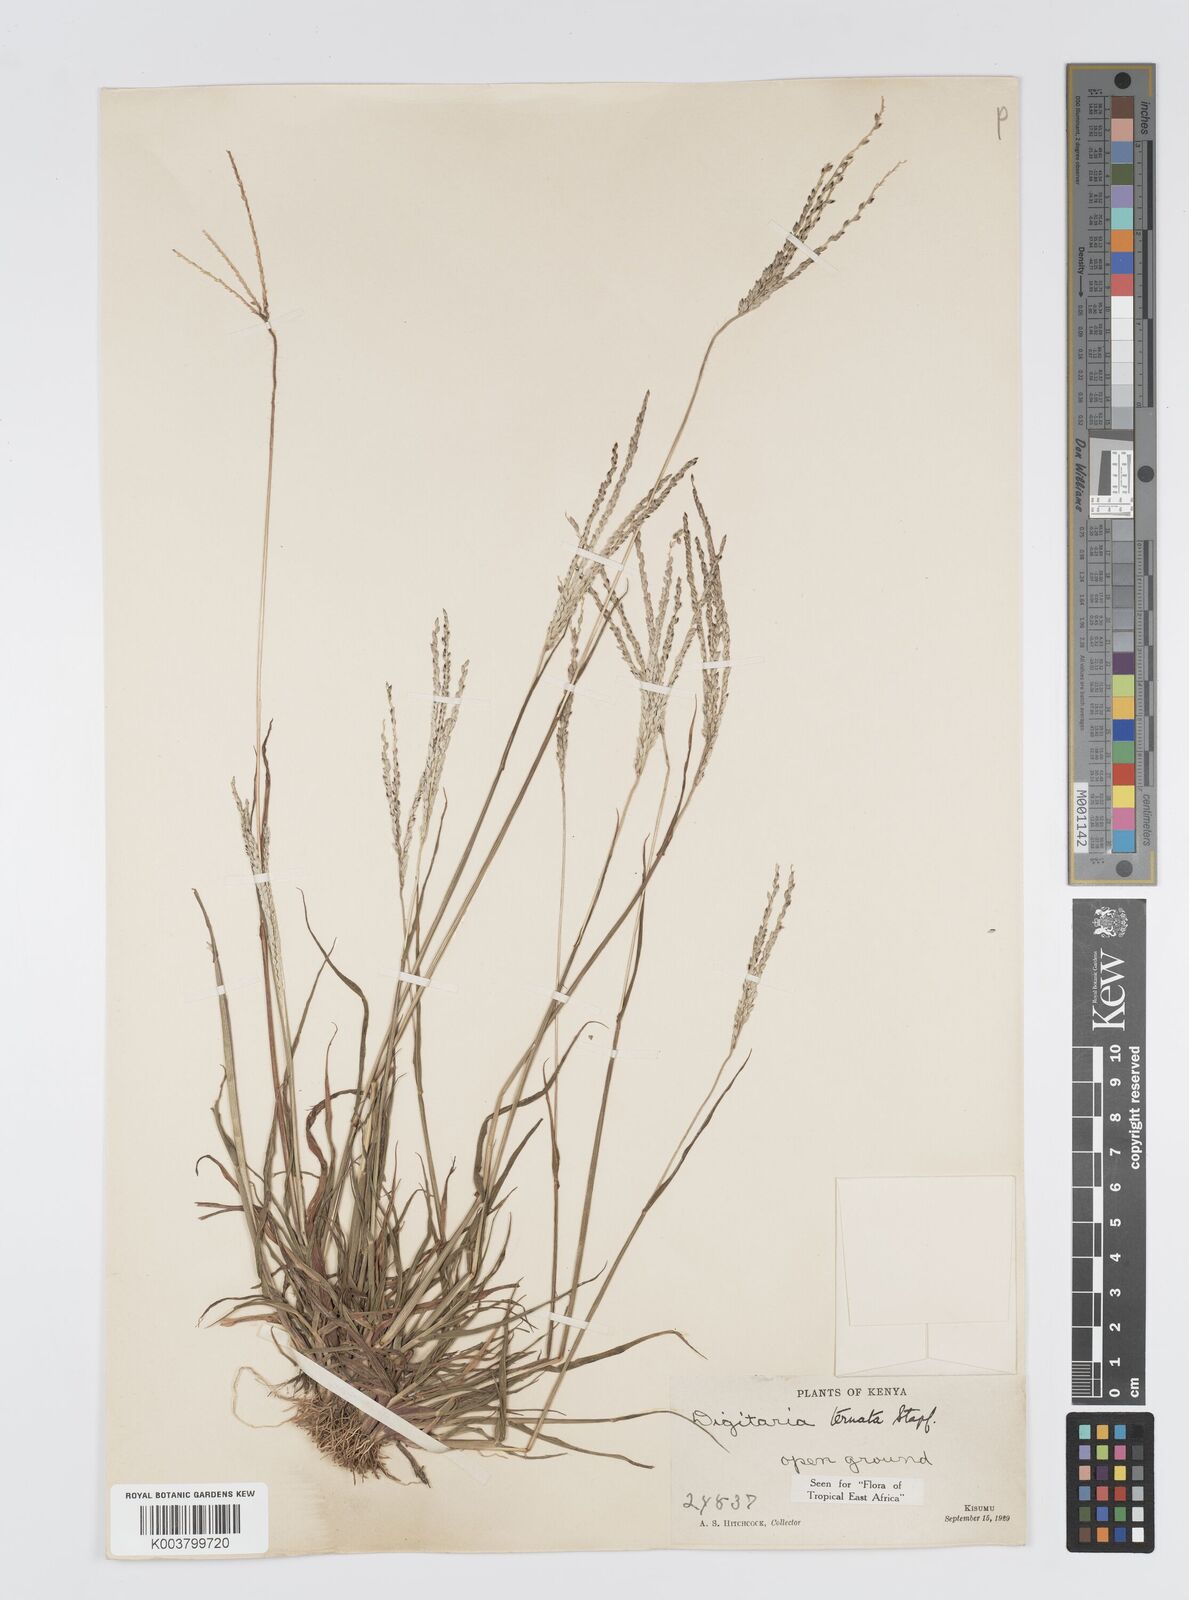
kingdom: Plantae
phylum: Tracheophyta
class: Liliopsida
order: Poales
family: Poaceae
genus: Digitaria
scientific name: Digitaria ternata
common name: Blackseed crabgrass
